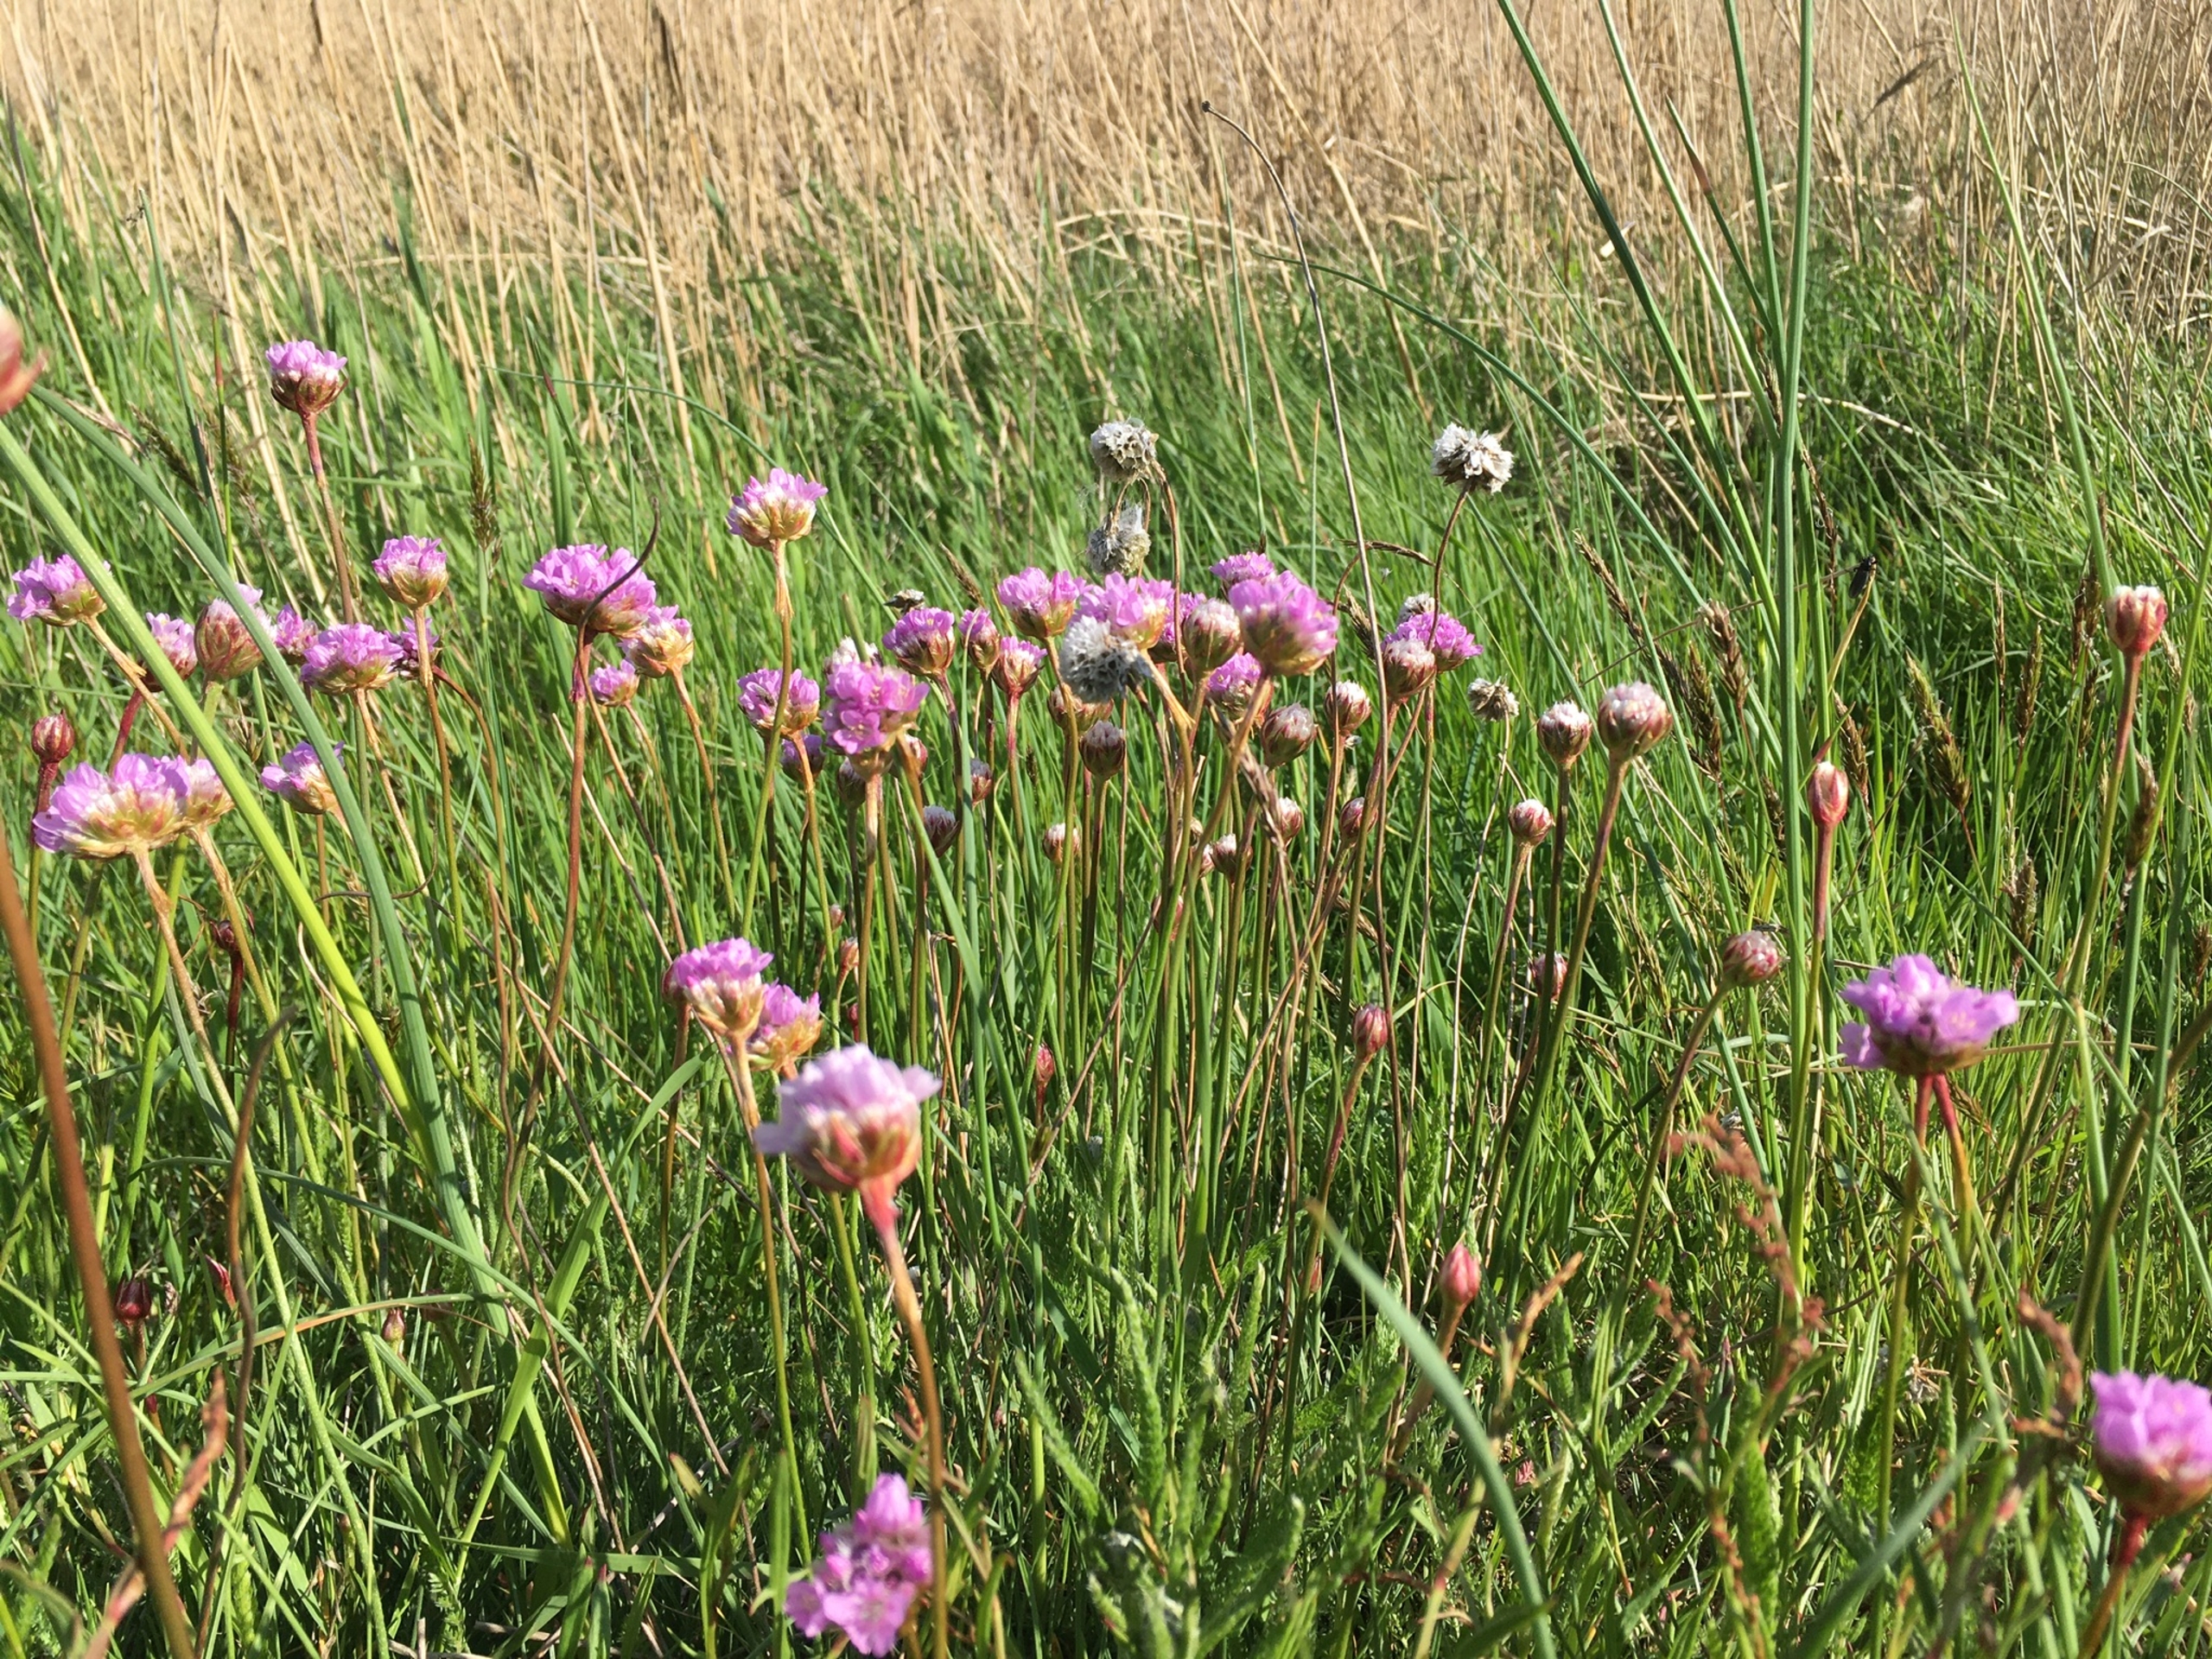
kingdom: Plantae
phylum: Tracheophyta
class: Magnoliopsida
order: Caryophyllales
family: Plumbaginaceae
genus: Armeria
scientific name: Armeria maritima
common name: Engelskgræs
